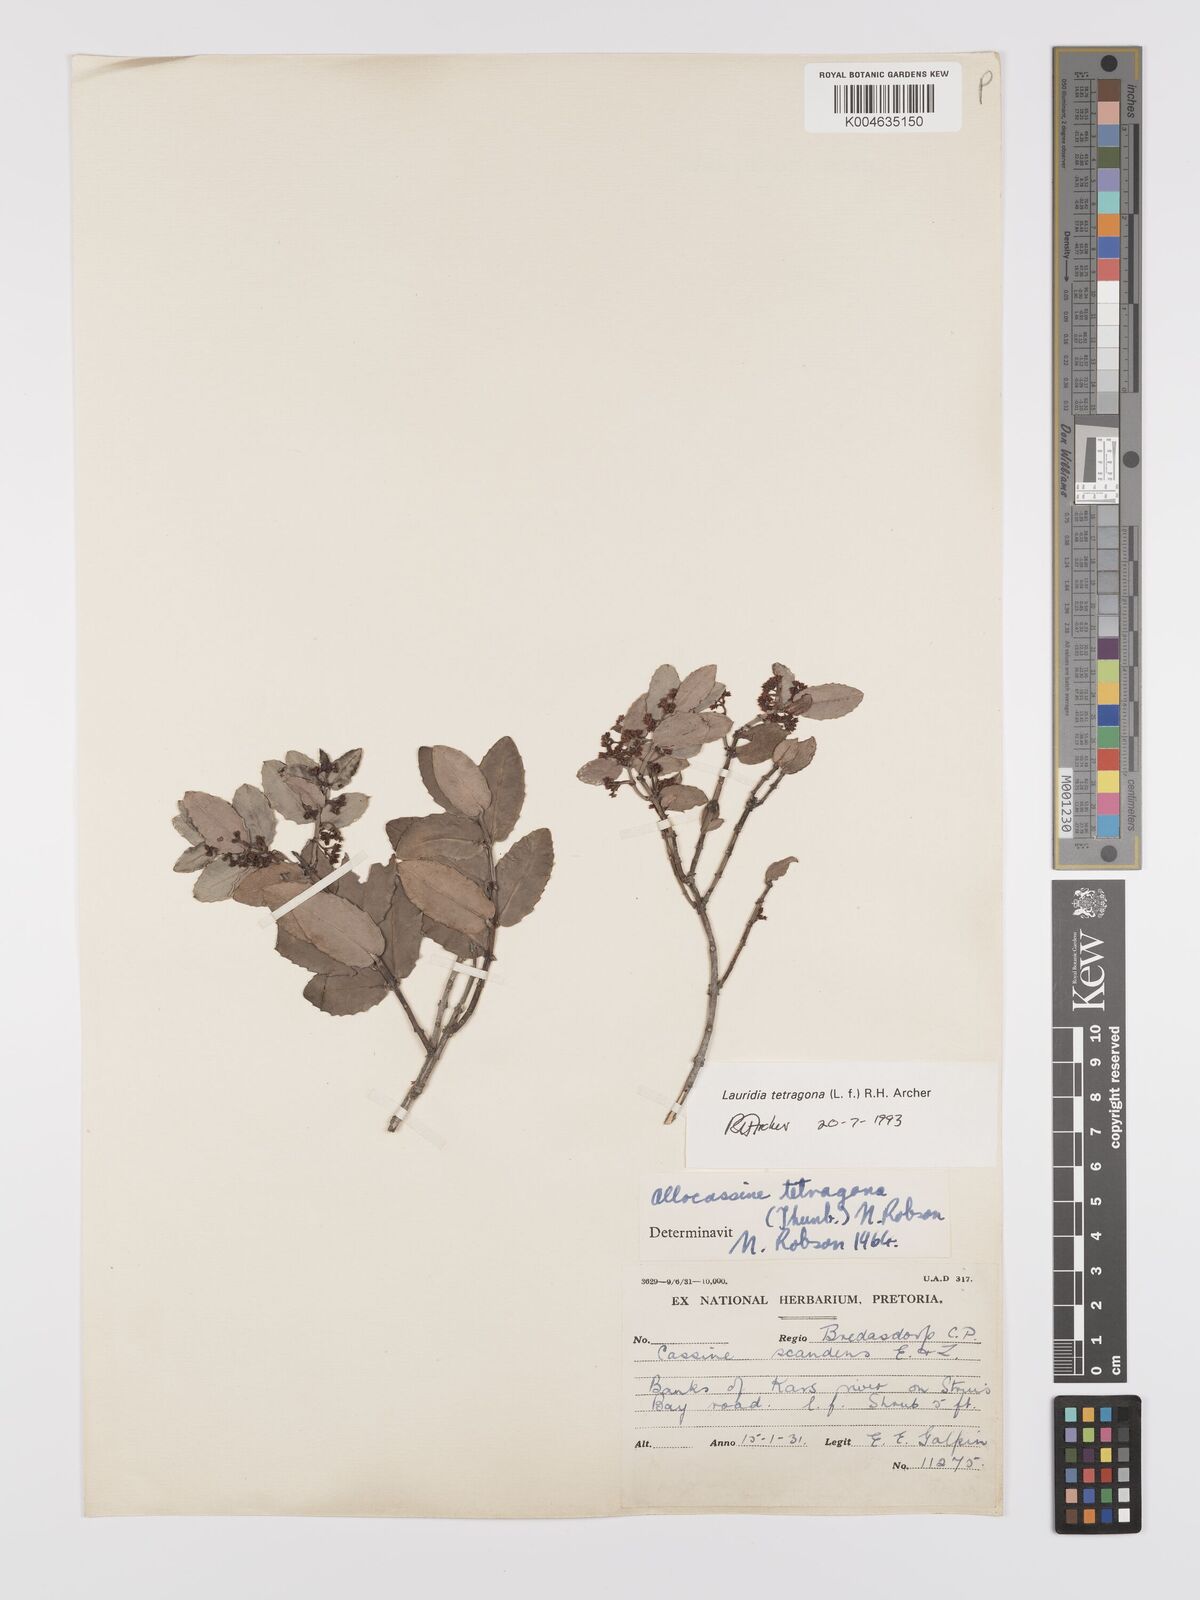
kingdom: Plantae
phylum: Tracheophyta
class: Magnoliopsida
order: Celastrales
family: Celastraceae
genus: Lauridia
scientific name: Lauridia tetragona
